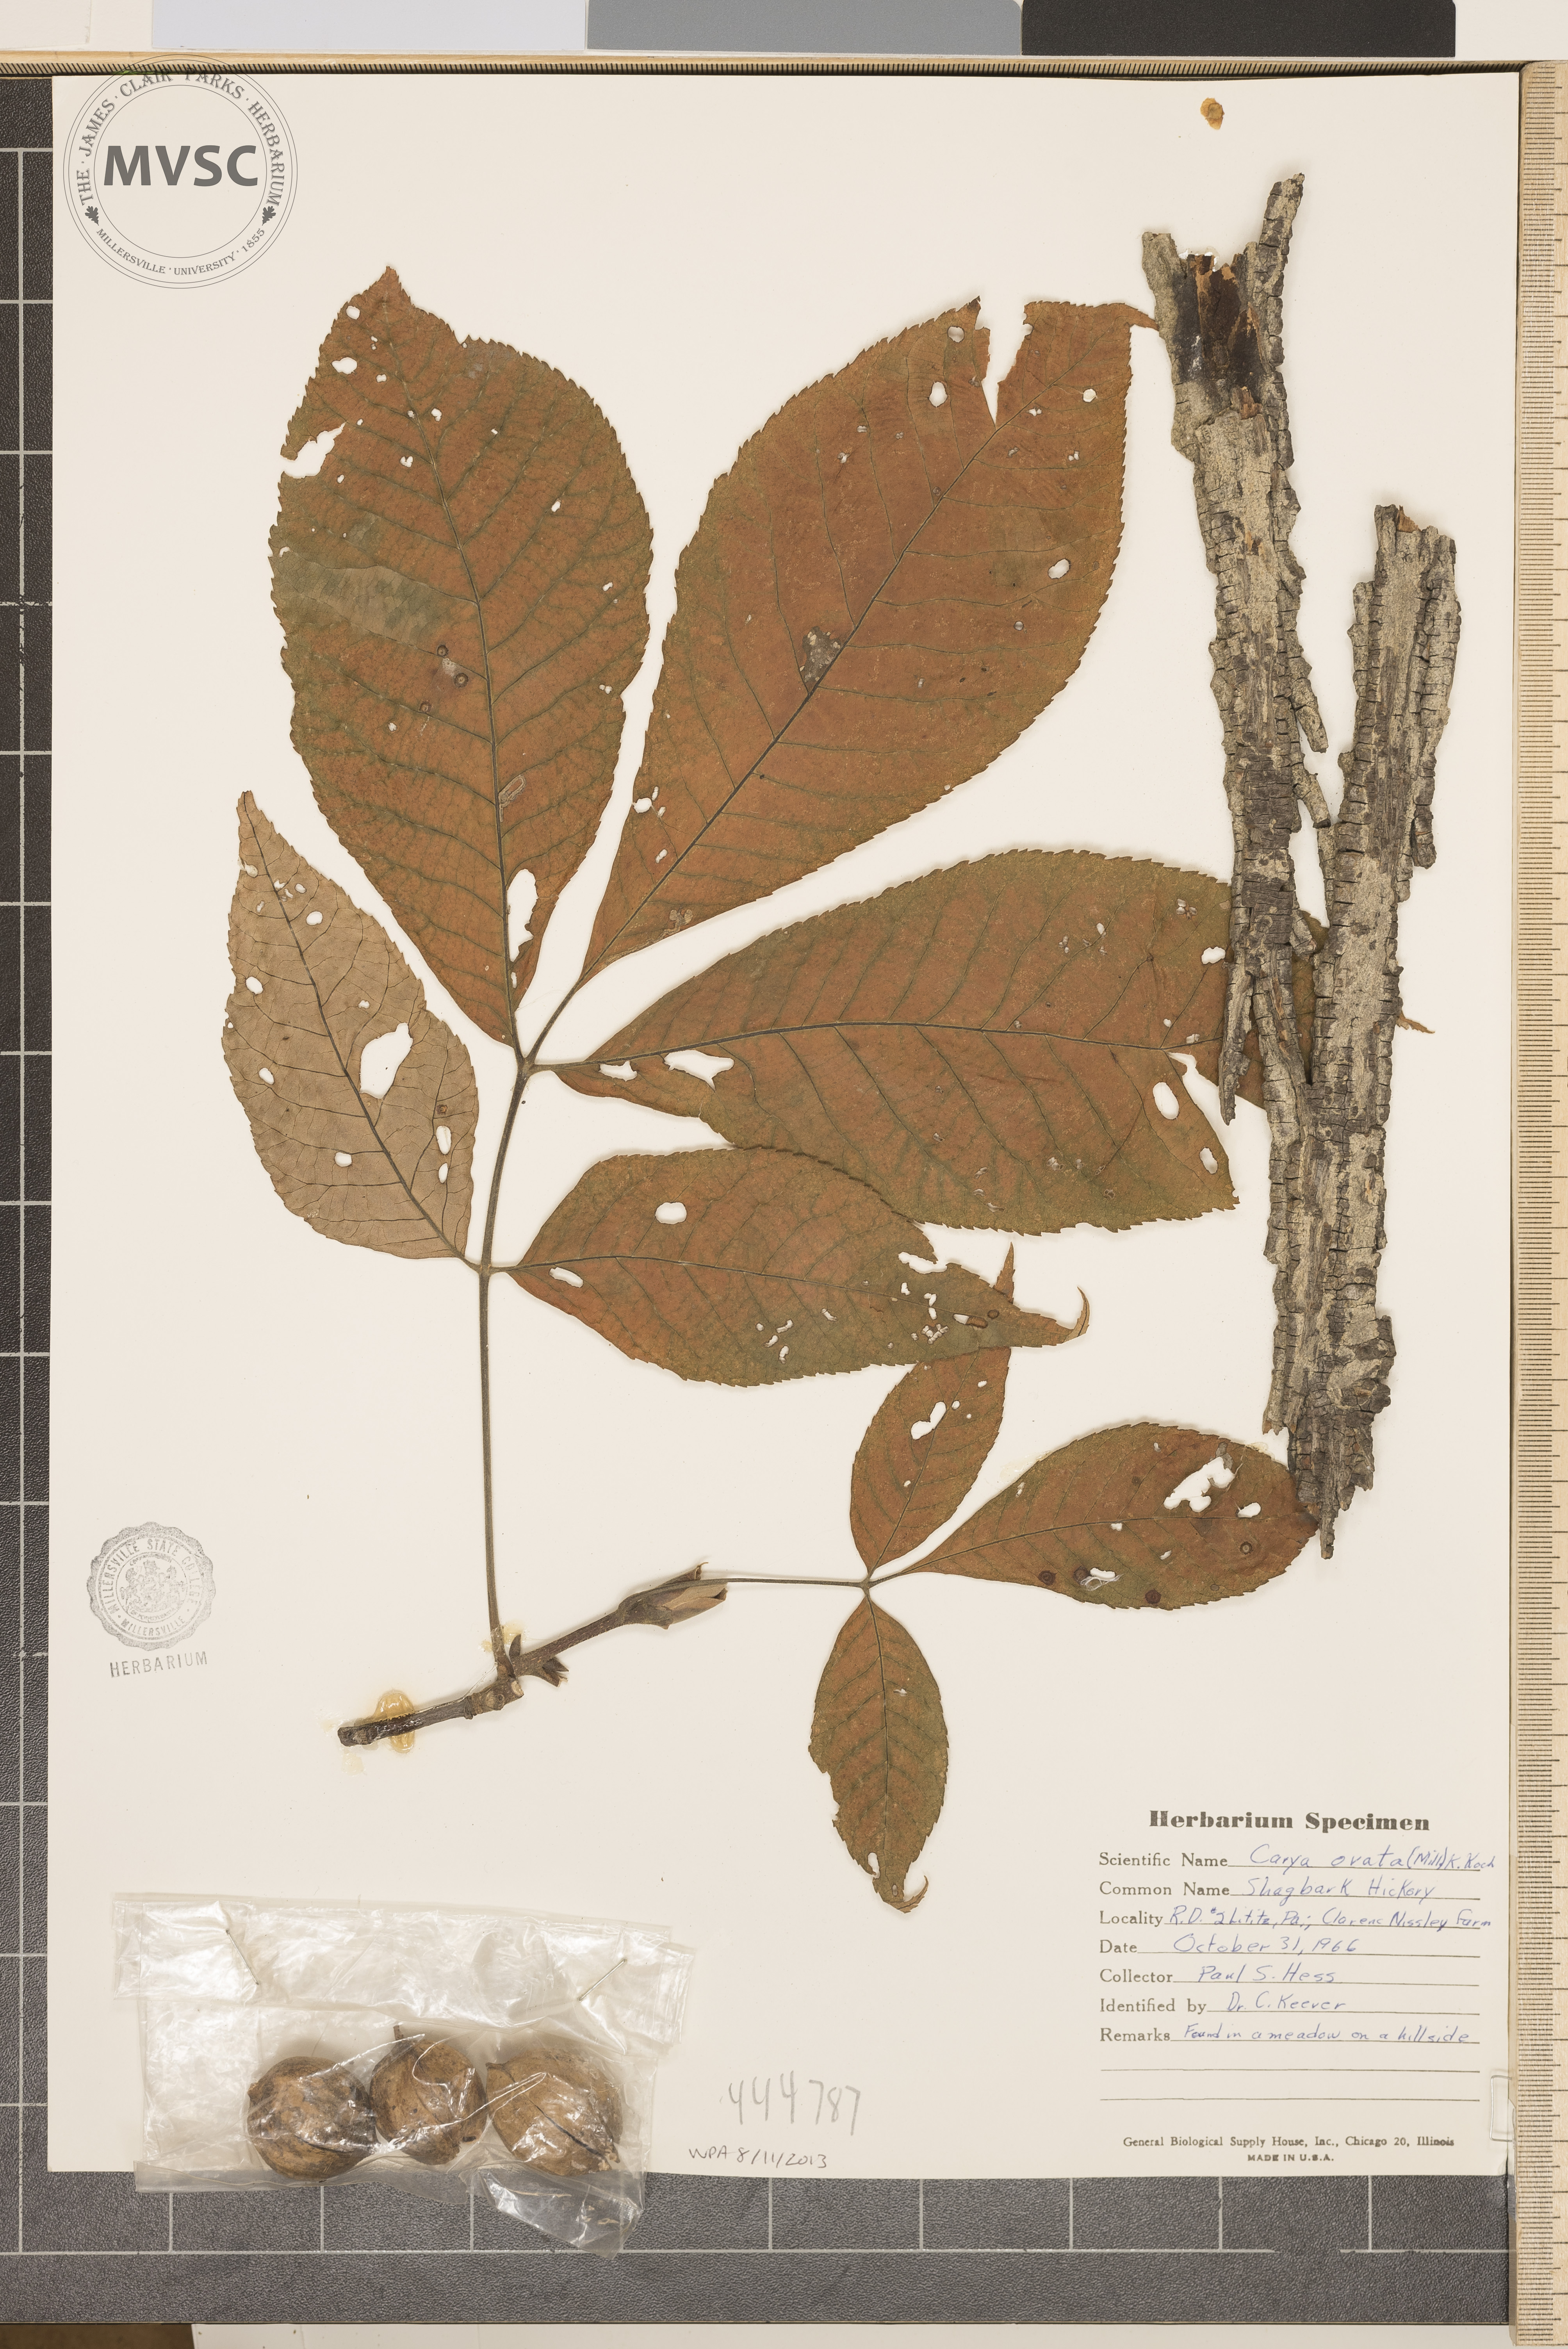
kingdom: Plantae
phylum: Tracheophyta
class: Magnoliopsida
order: Fagales
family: Juglandaceae
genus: Carya
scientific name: Carya ovata
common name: Shagbark hickory
